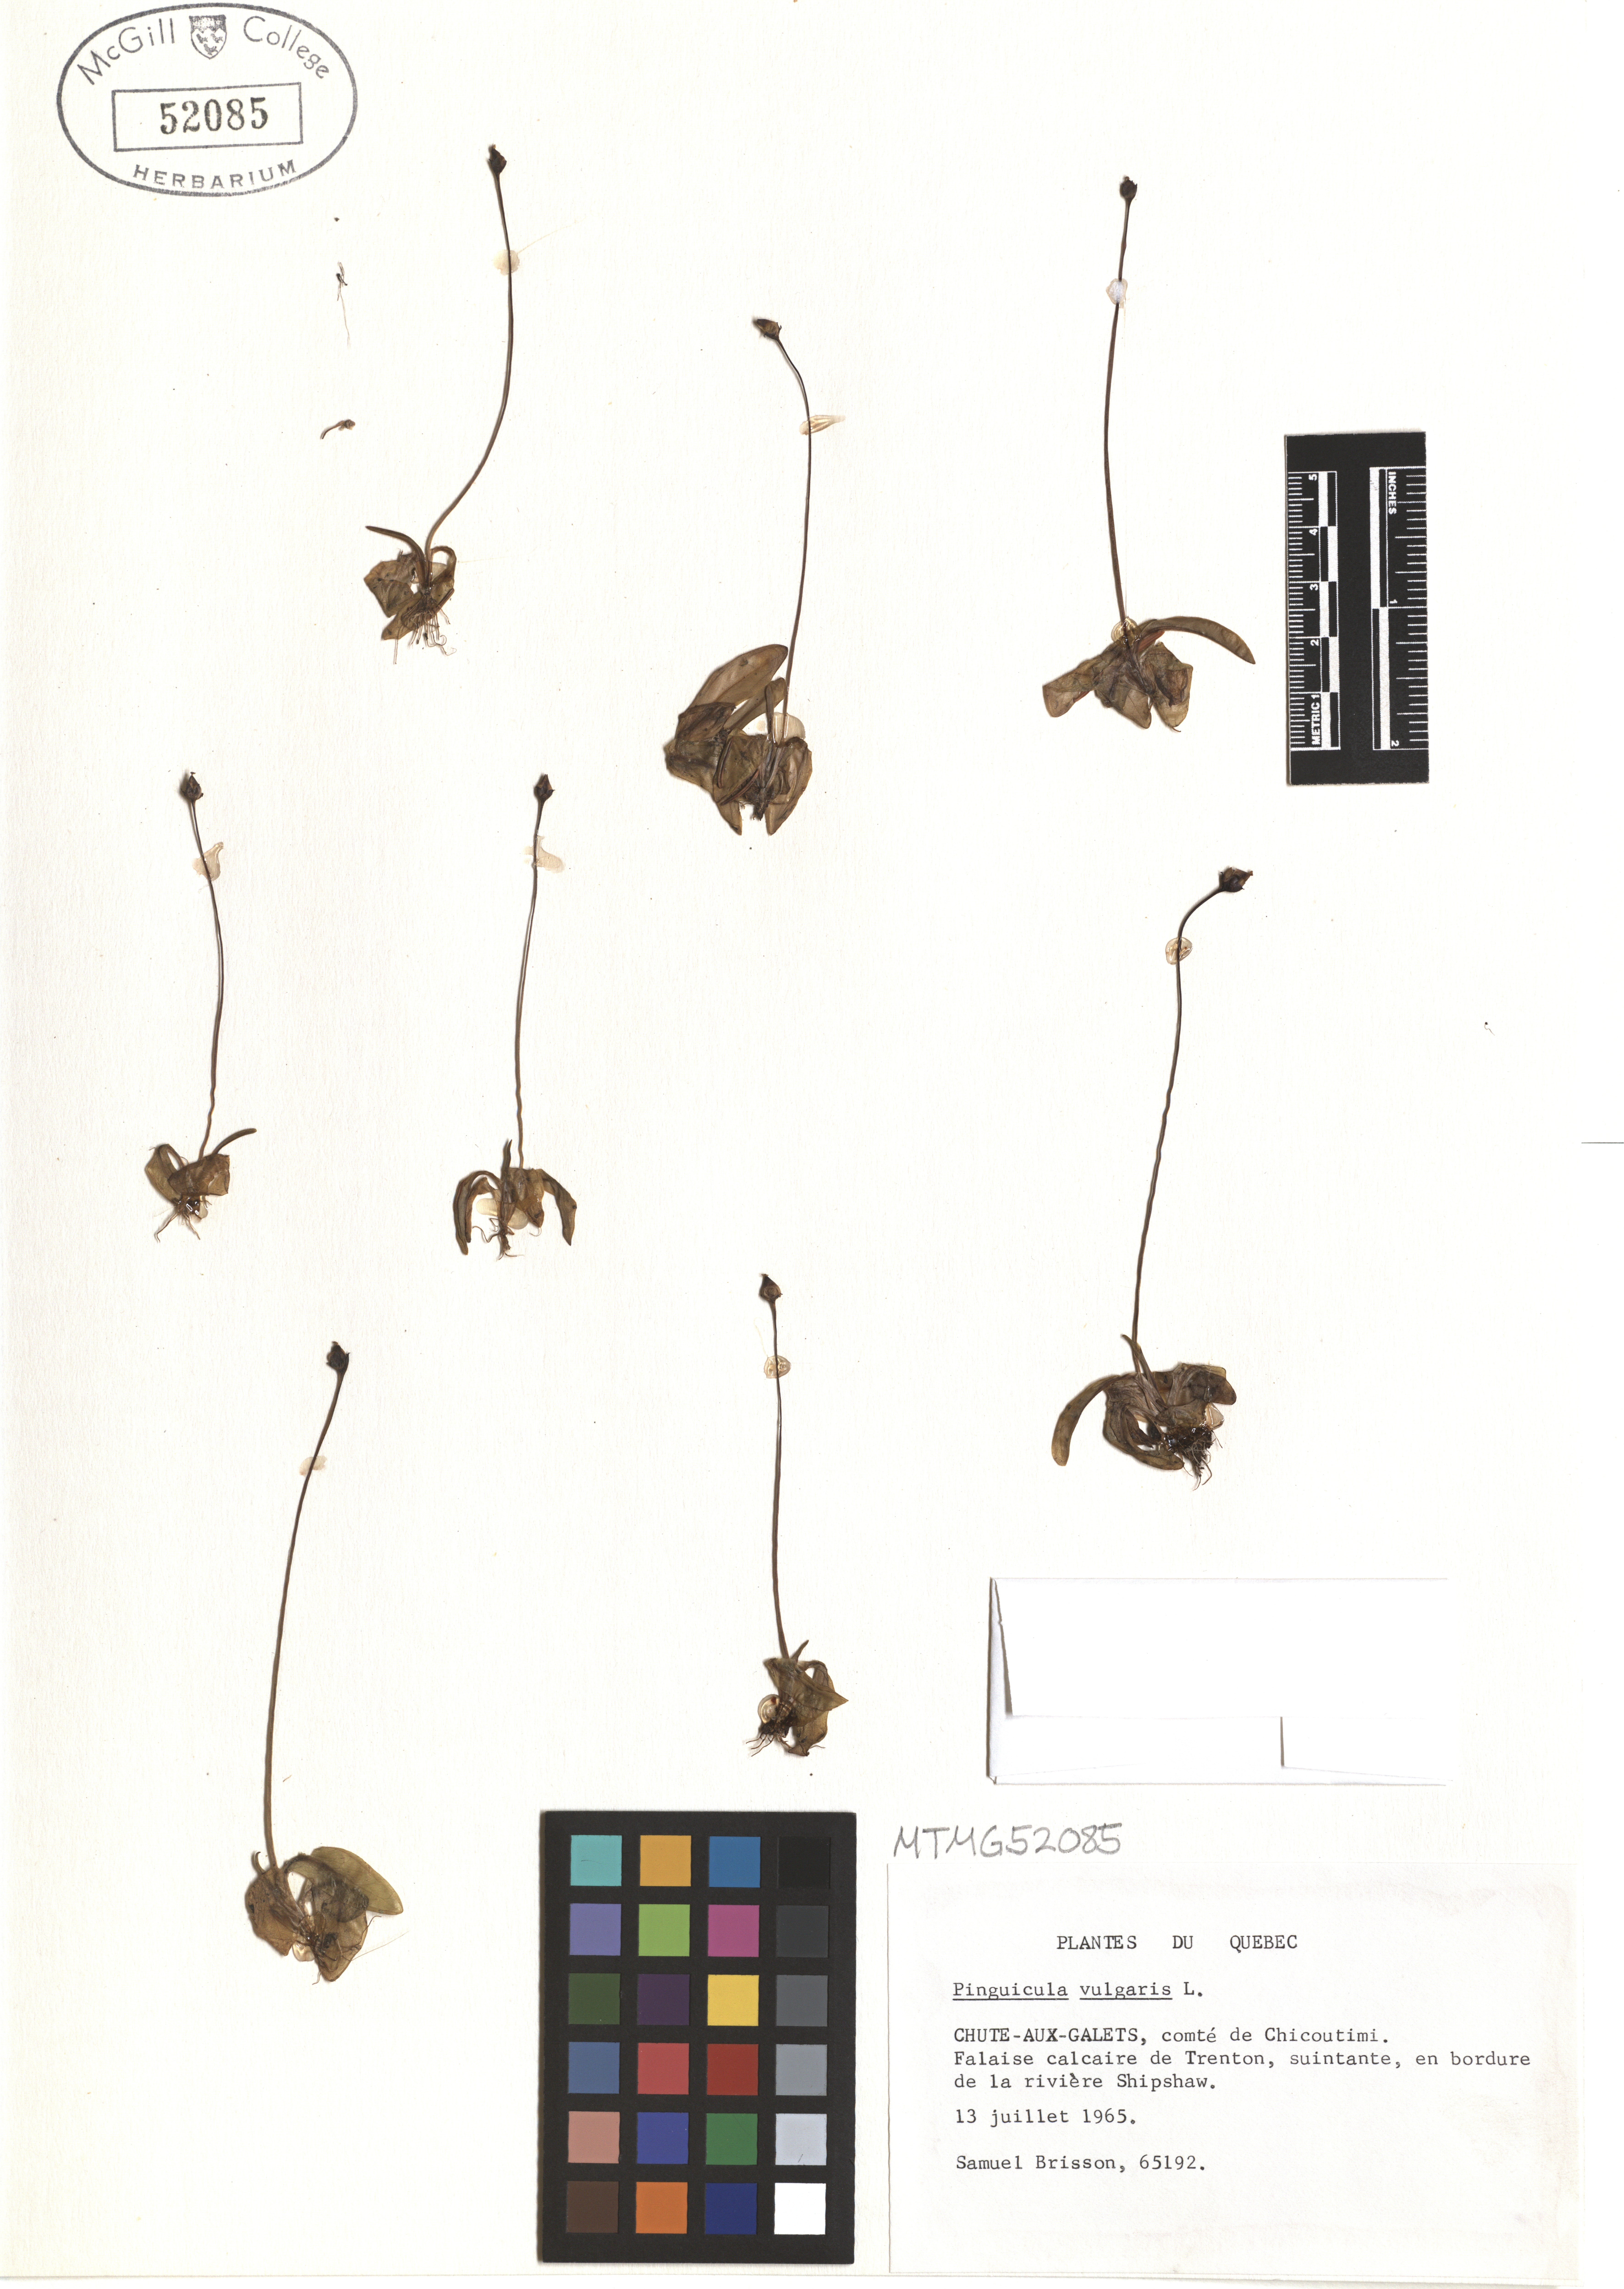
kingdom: Plantae
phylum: Tracheophyta
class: Magnoliopsida
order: Lamiales
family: Lentibulariaceae
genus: Pinguicula
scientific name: Pinguicula vulgaris
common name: Common butterwort
